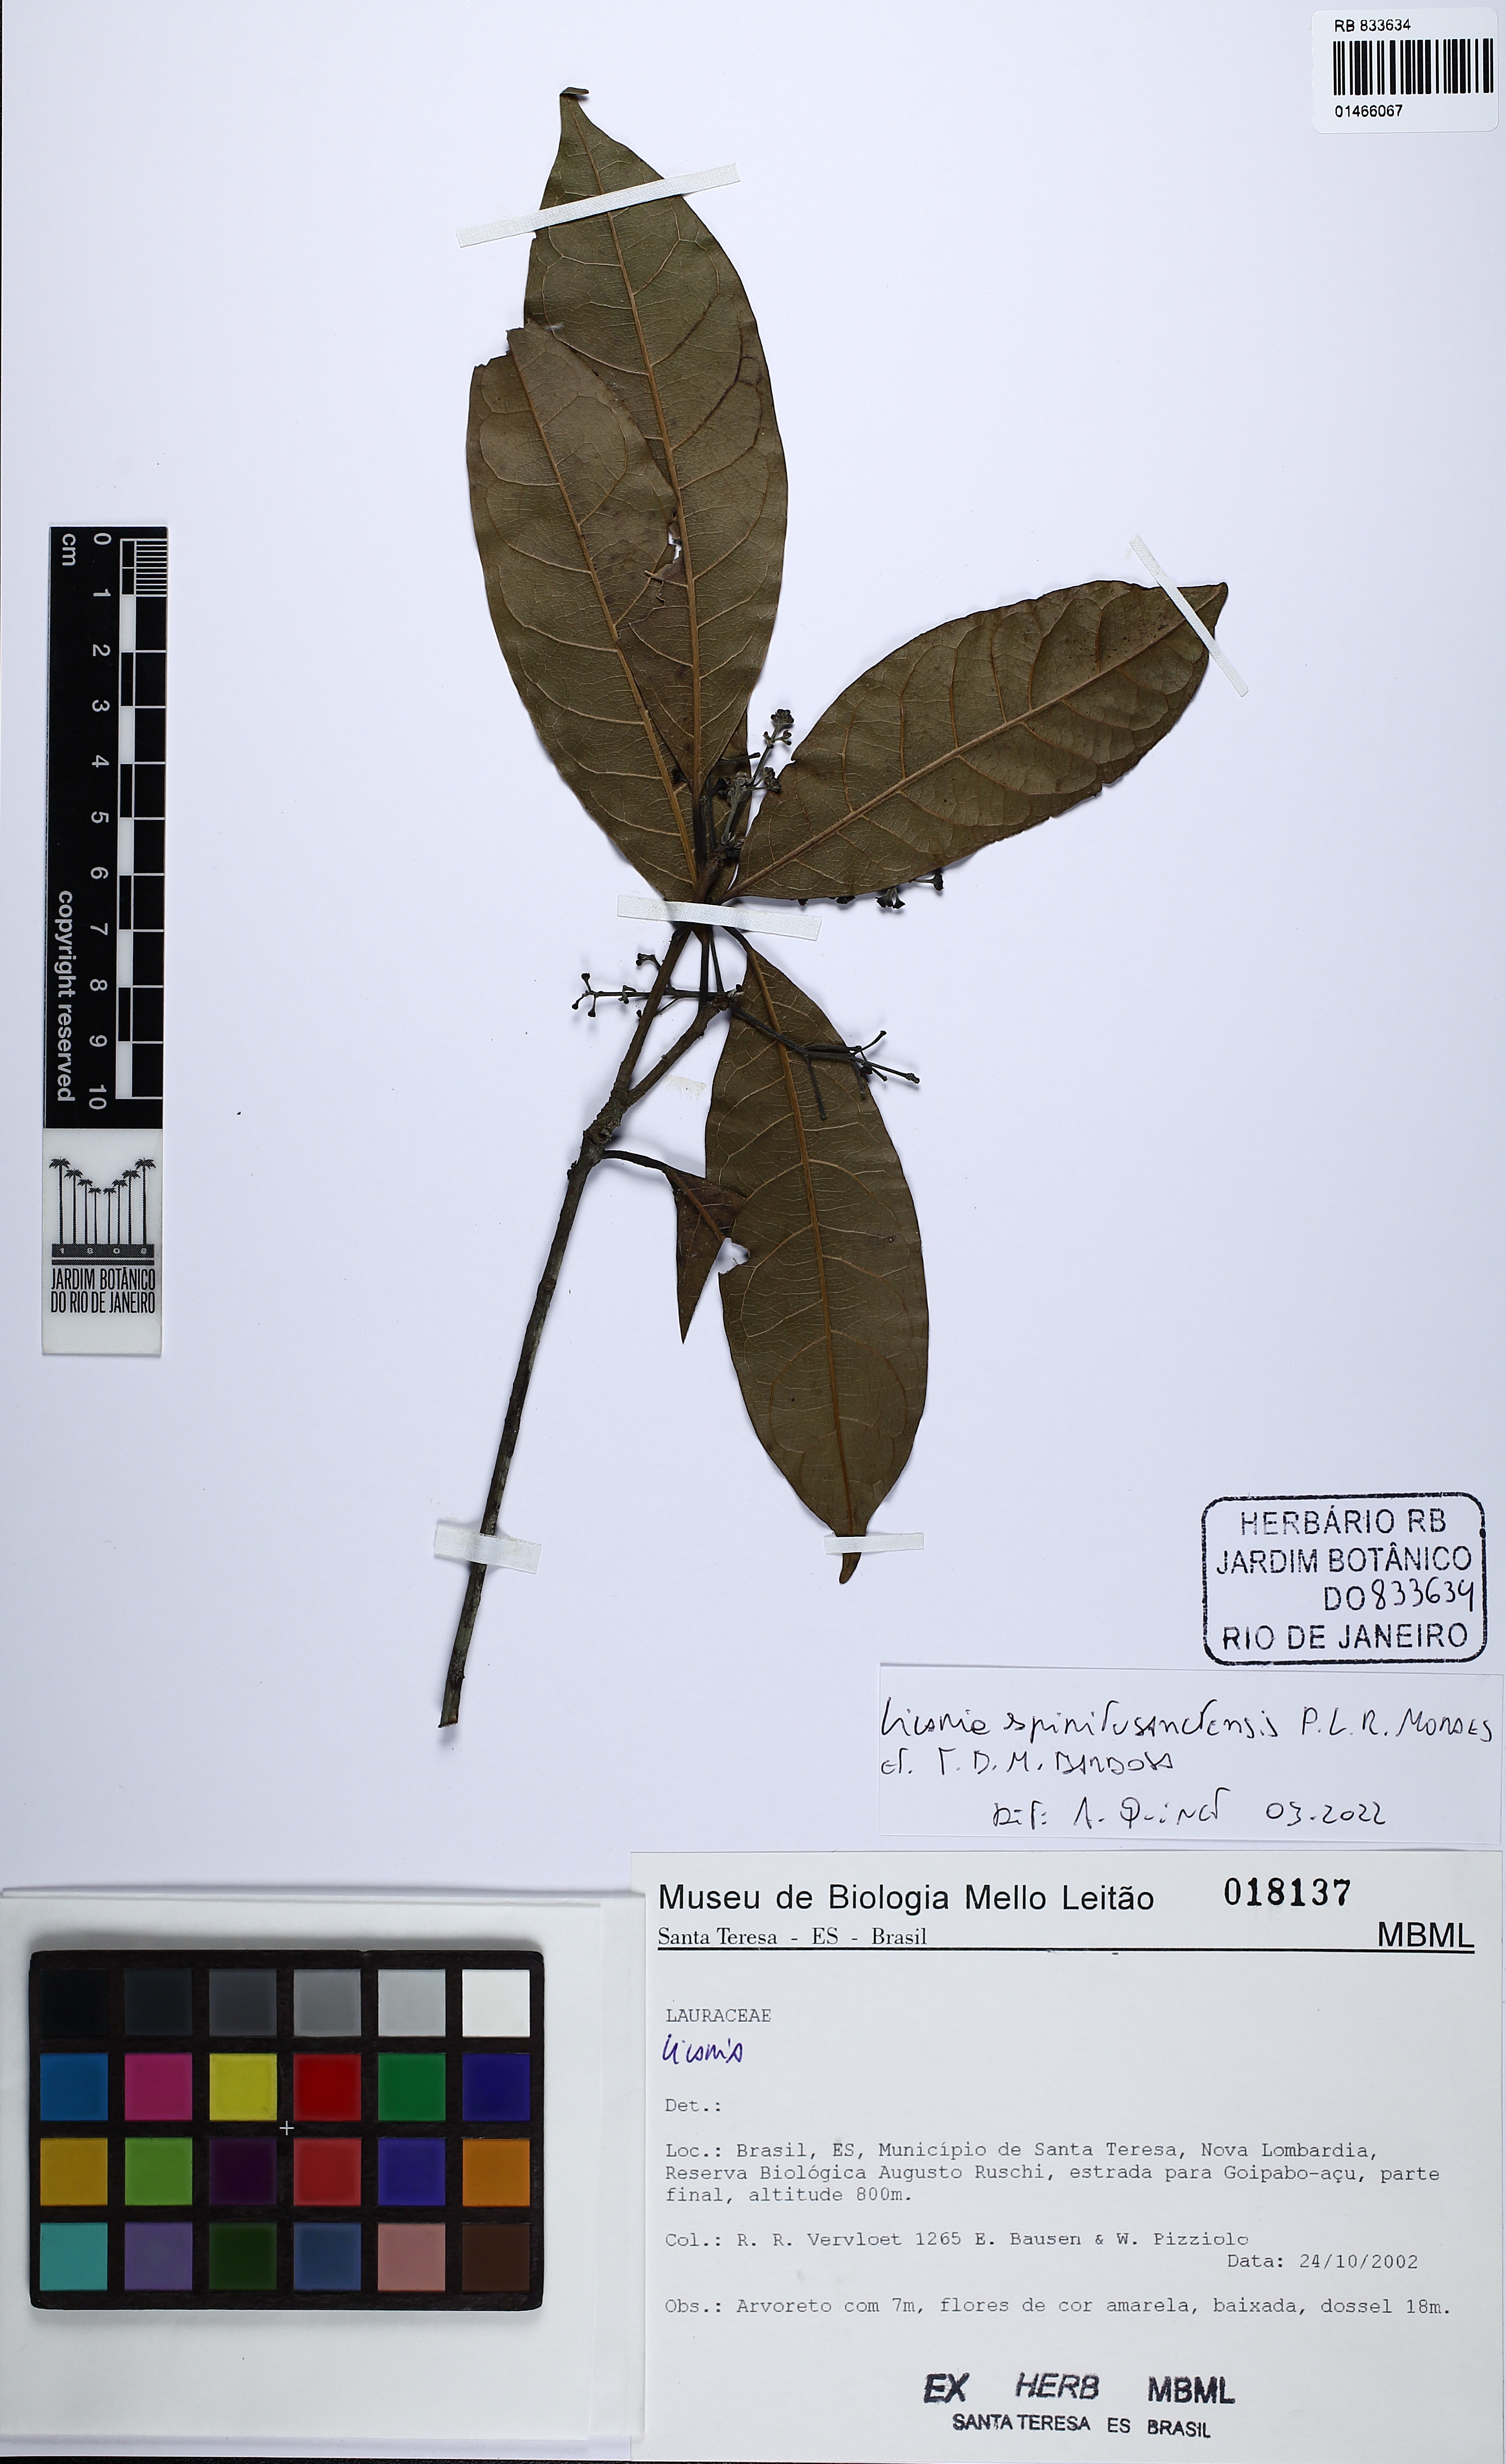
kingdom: Plantae
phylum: Tracheophyta
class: Magnoliopsida
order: Laurales
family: Lauraceae
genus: Licaria
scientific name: Licaria spiritusanctensis
